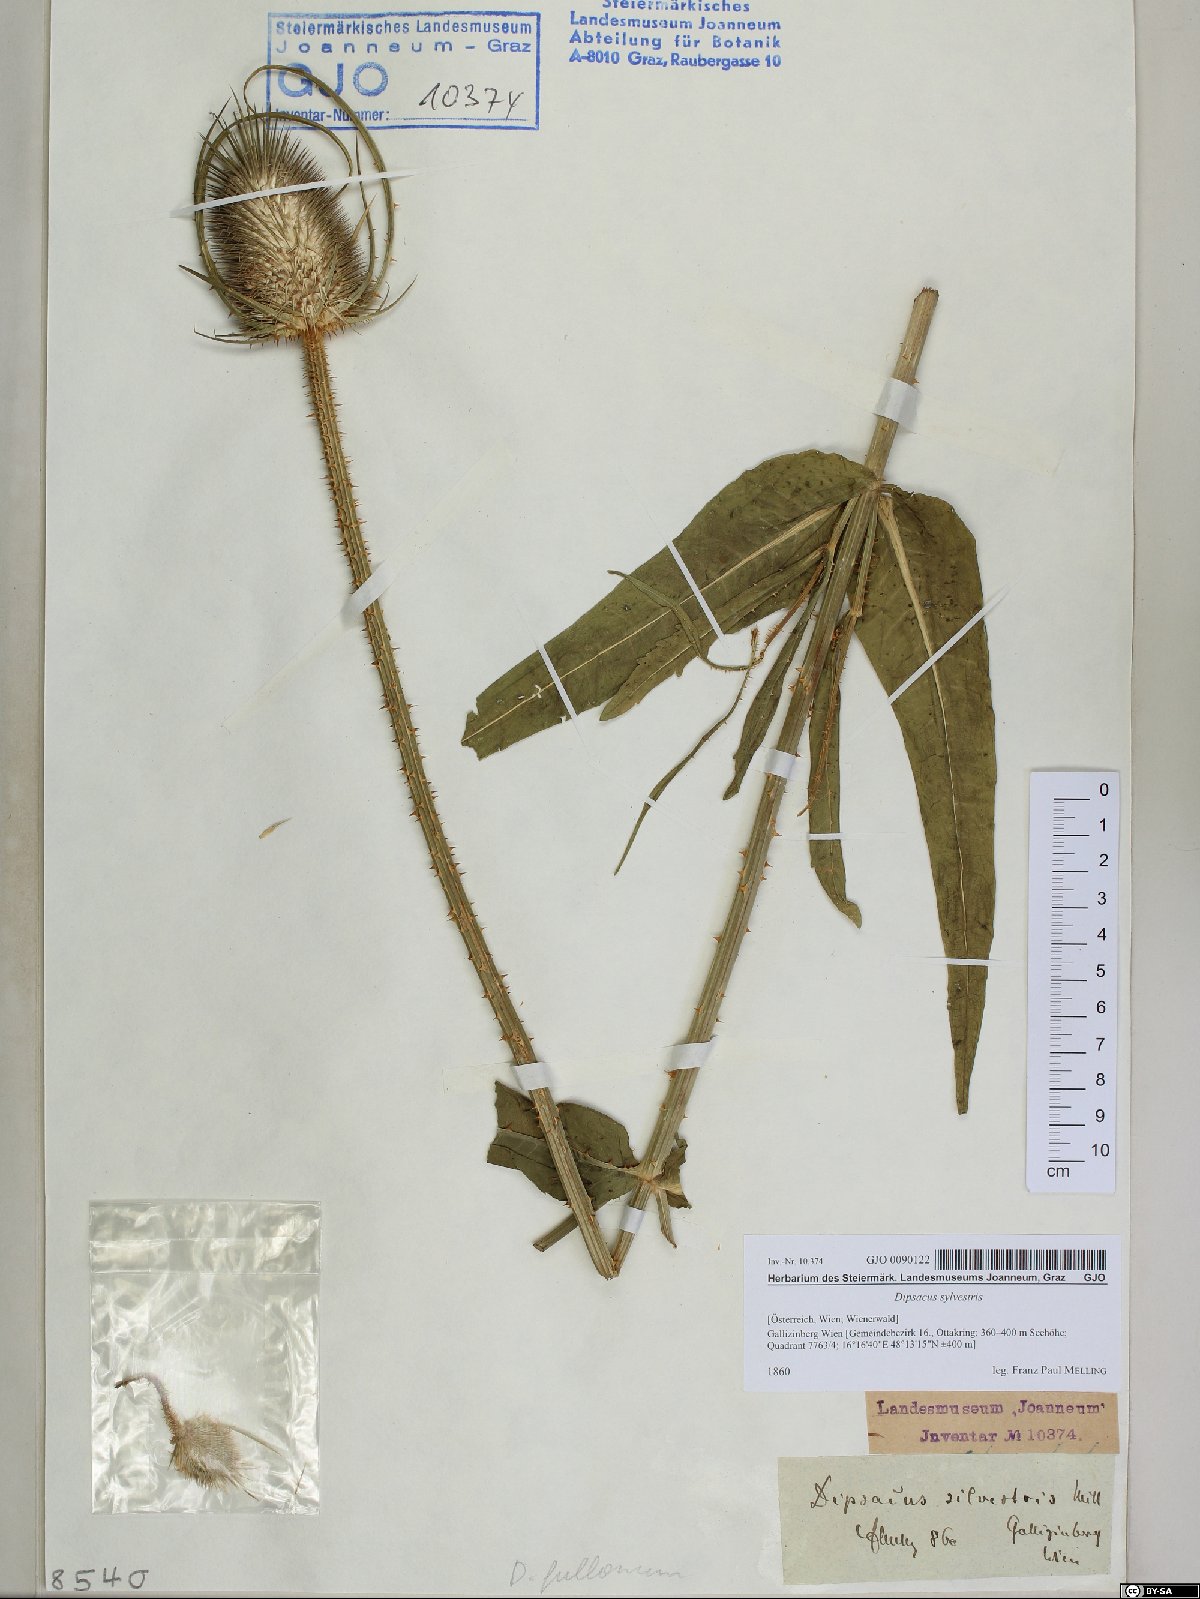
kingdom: Plantae
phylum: Tracheophyta
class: Magnoliopsida
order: Dipsacales
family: Caprifoliaceae
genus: Dipsacus
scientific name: Dipsacus fullonum
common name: Teasel
